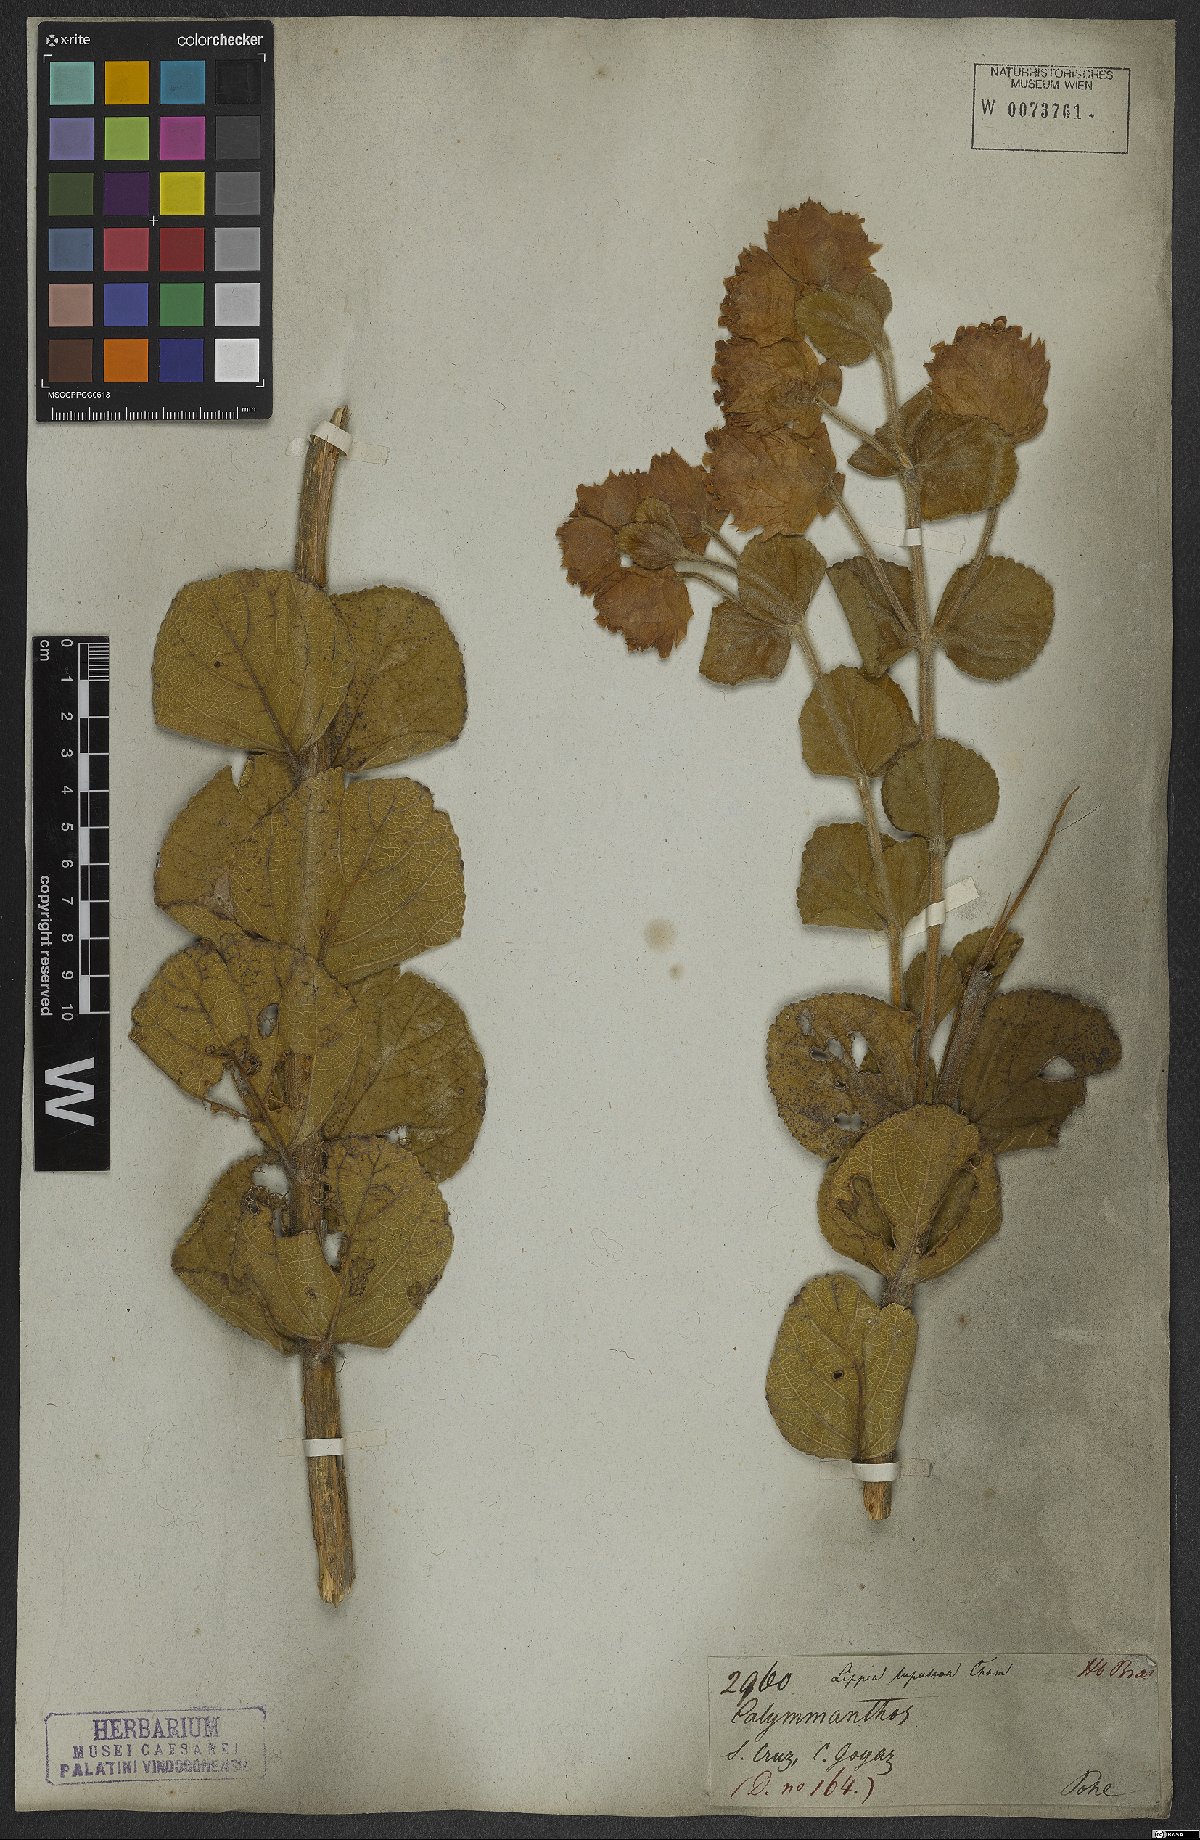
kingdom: Plantae
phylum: Tracheophyta
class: Magnoliopsida
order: Lamiales
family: Verbenaceae
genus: Lippia
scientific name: Lippia lupulina
